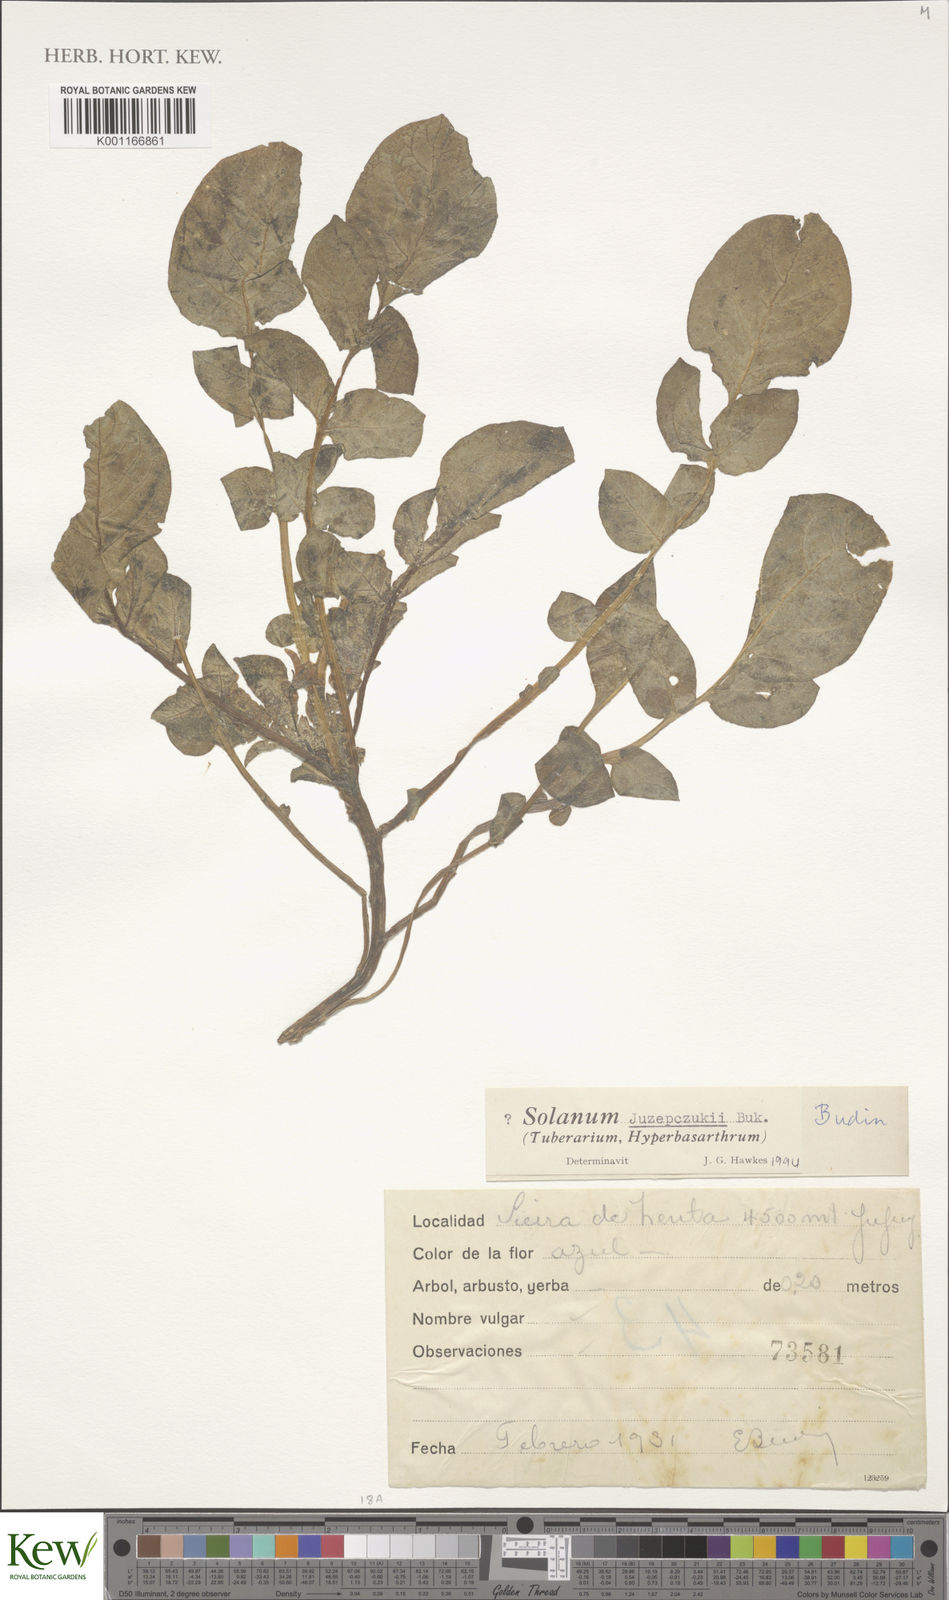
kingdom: Plantae
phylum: Tracheophyta
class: Magnoliopsida
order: Solanales
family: Solanaceae
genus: Solanum
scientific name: Solanum juzepczukii
